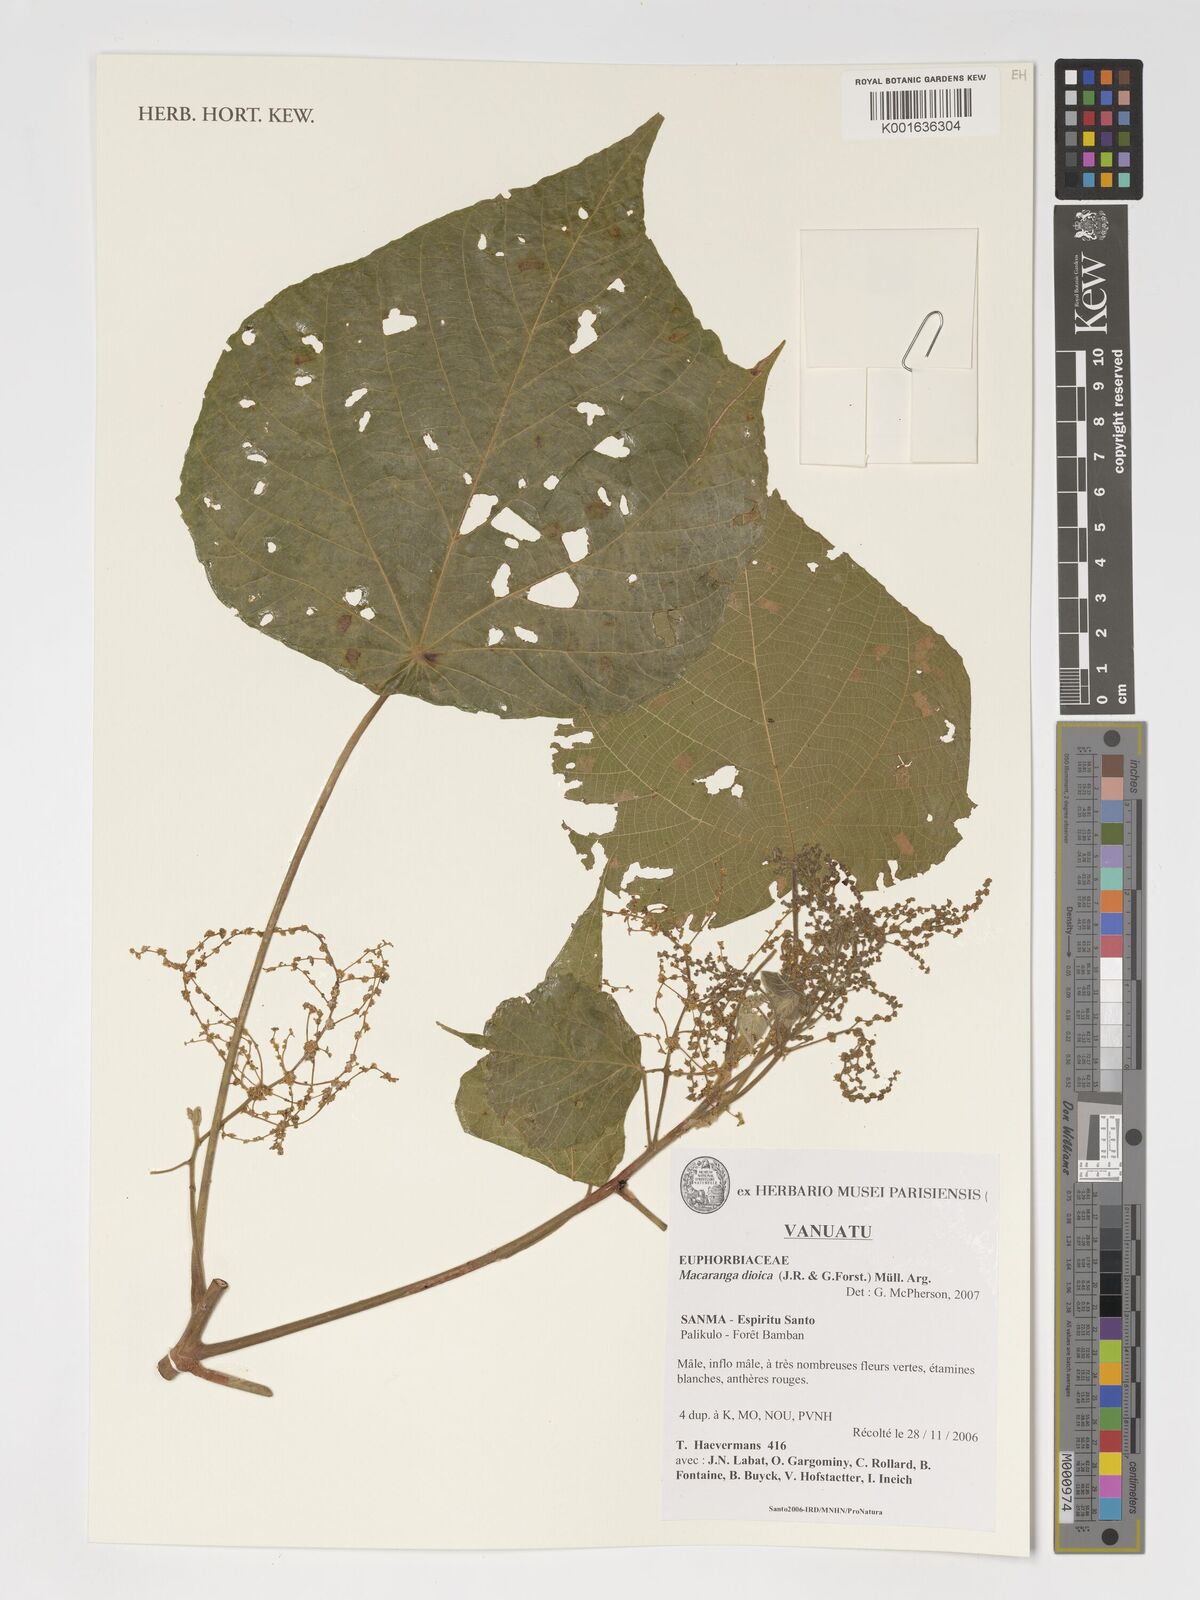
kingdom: Plantae
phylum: Tracheophyta
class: Magnoliopsida
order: Malpighiales
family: Euphorbiaceae
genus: Macaranga
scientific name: Macaranga dioica
